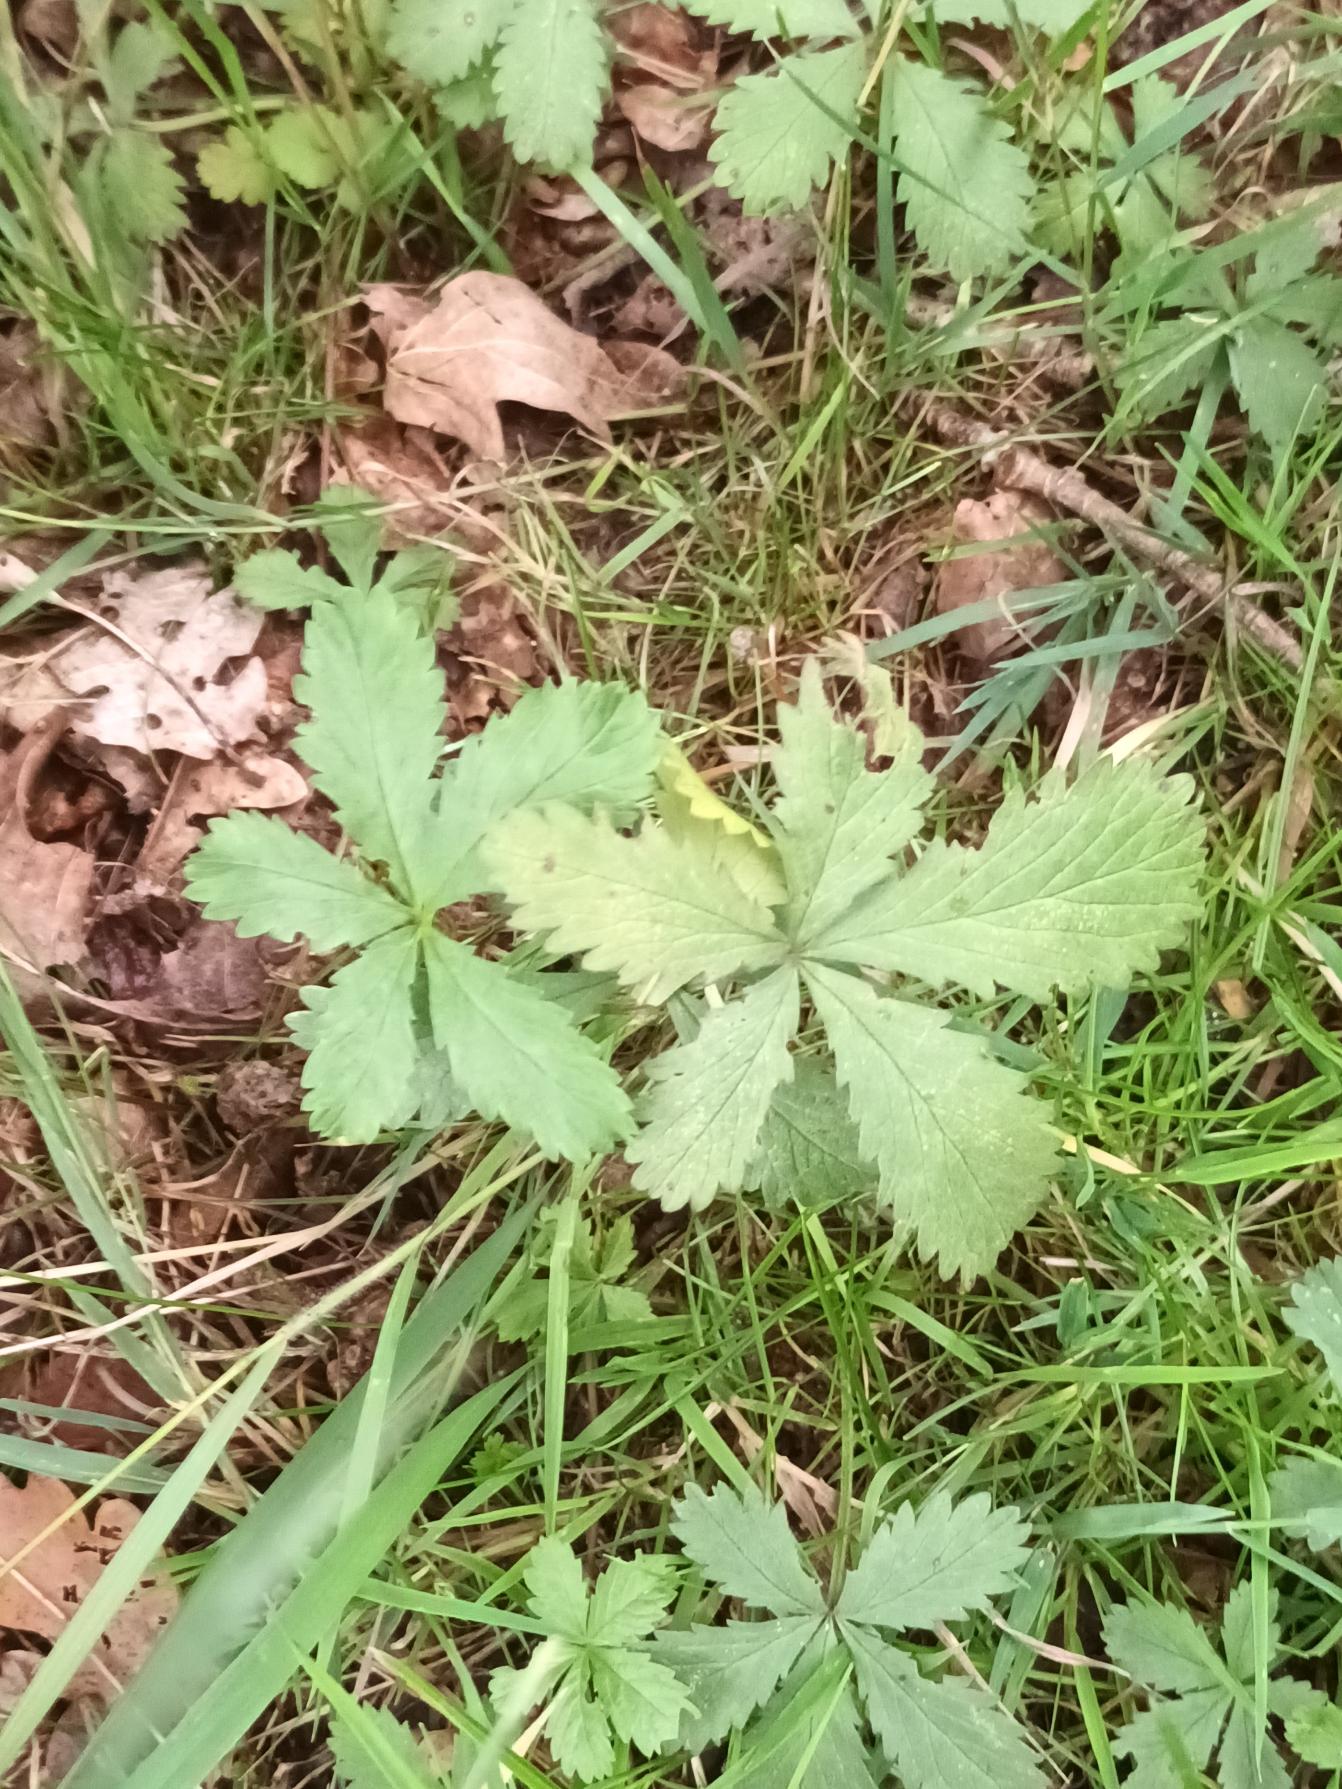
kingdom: Plantae
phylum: Tracheophyta
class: Magnoliopsida
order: Rosales
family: Rosaceae
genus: Potentilla
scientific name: Potentilla reptans
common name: Krybende potentil
